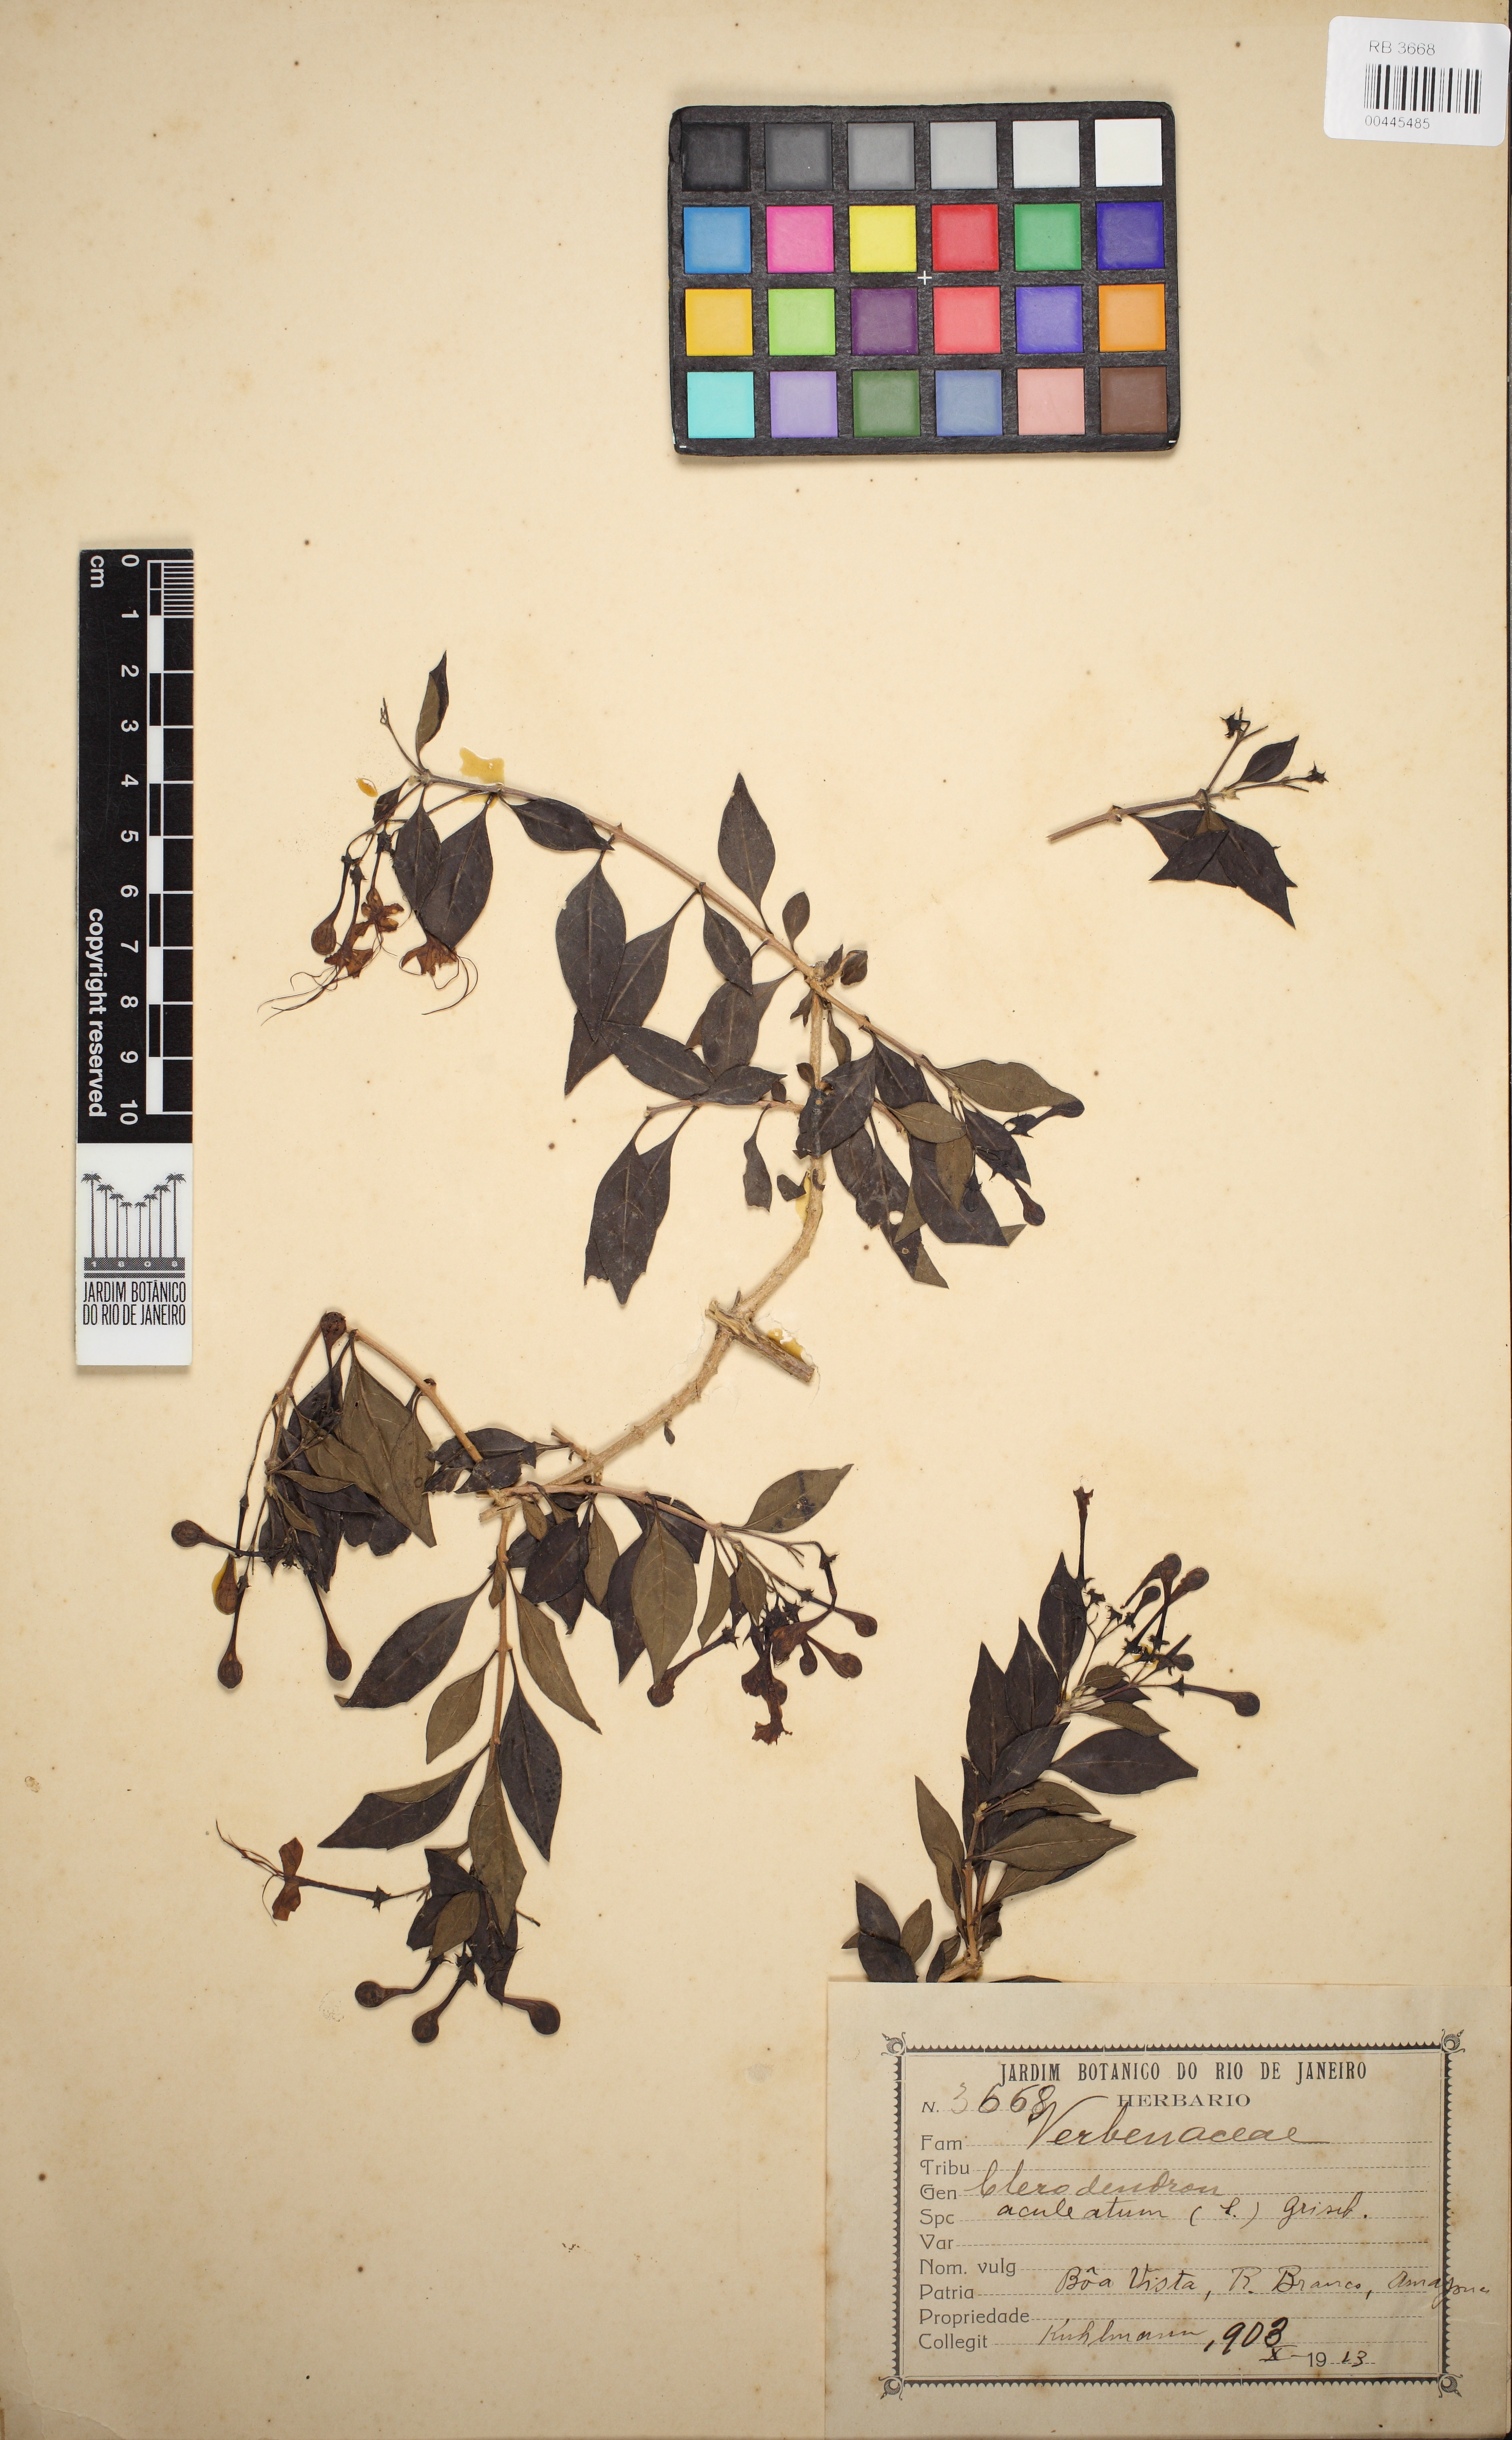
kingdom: Plantae
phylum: Tracheophyta
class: Magnoliopsida
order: Lamiales
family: Lamiaceae
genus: Volkameria
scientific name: Volkameria aculeata
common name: Prickly myrtle
